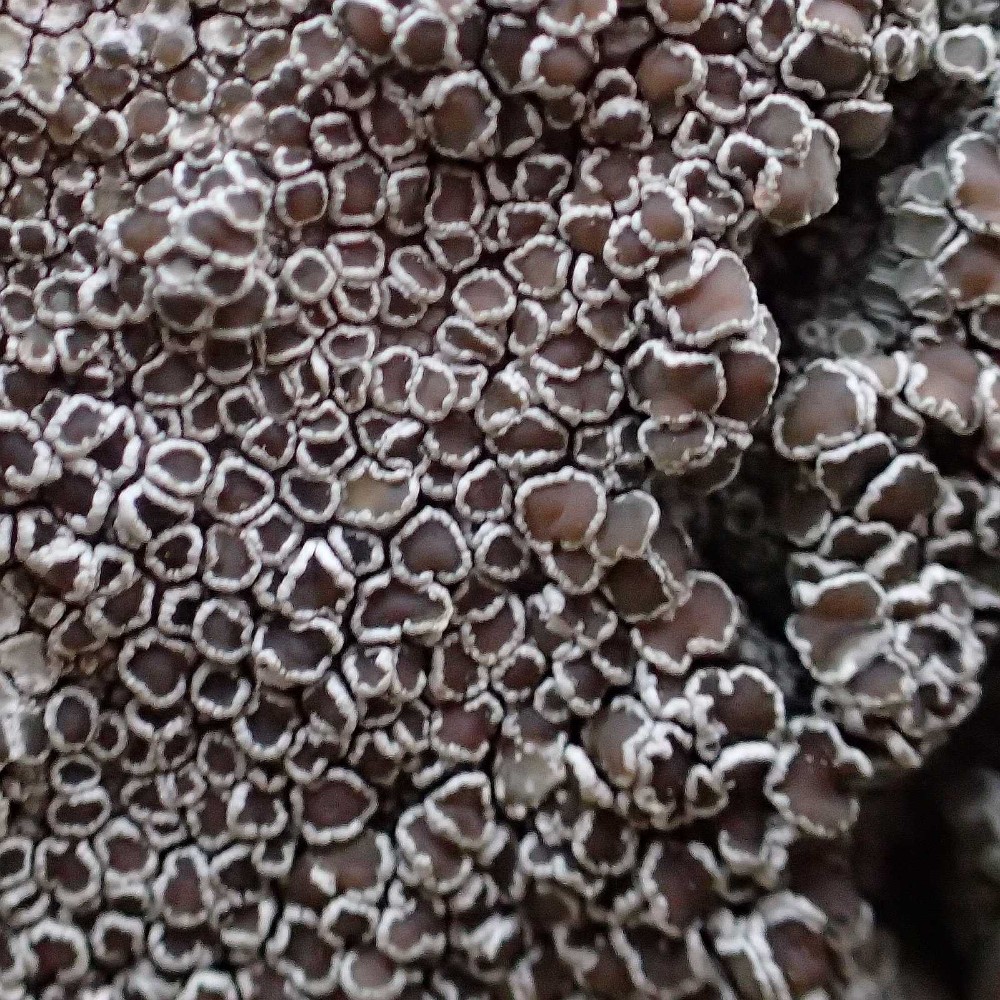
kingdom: Fungi
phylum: Ascomycota
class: Lecanoromycetes
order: Lecanorales
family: Lecanoraceae
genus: Lecanora
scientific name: Lecanora argentata
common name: sølv-kantskivelav
